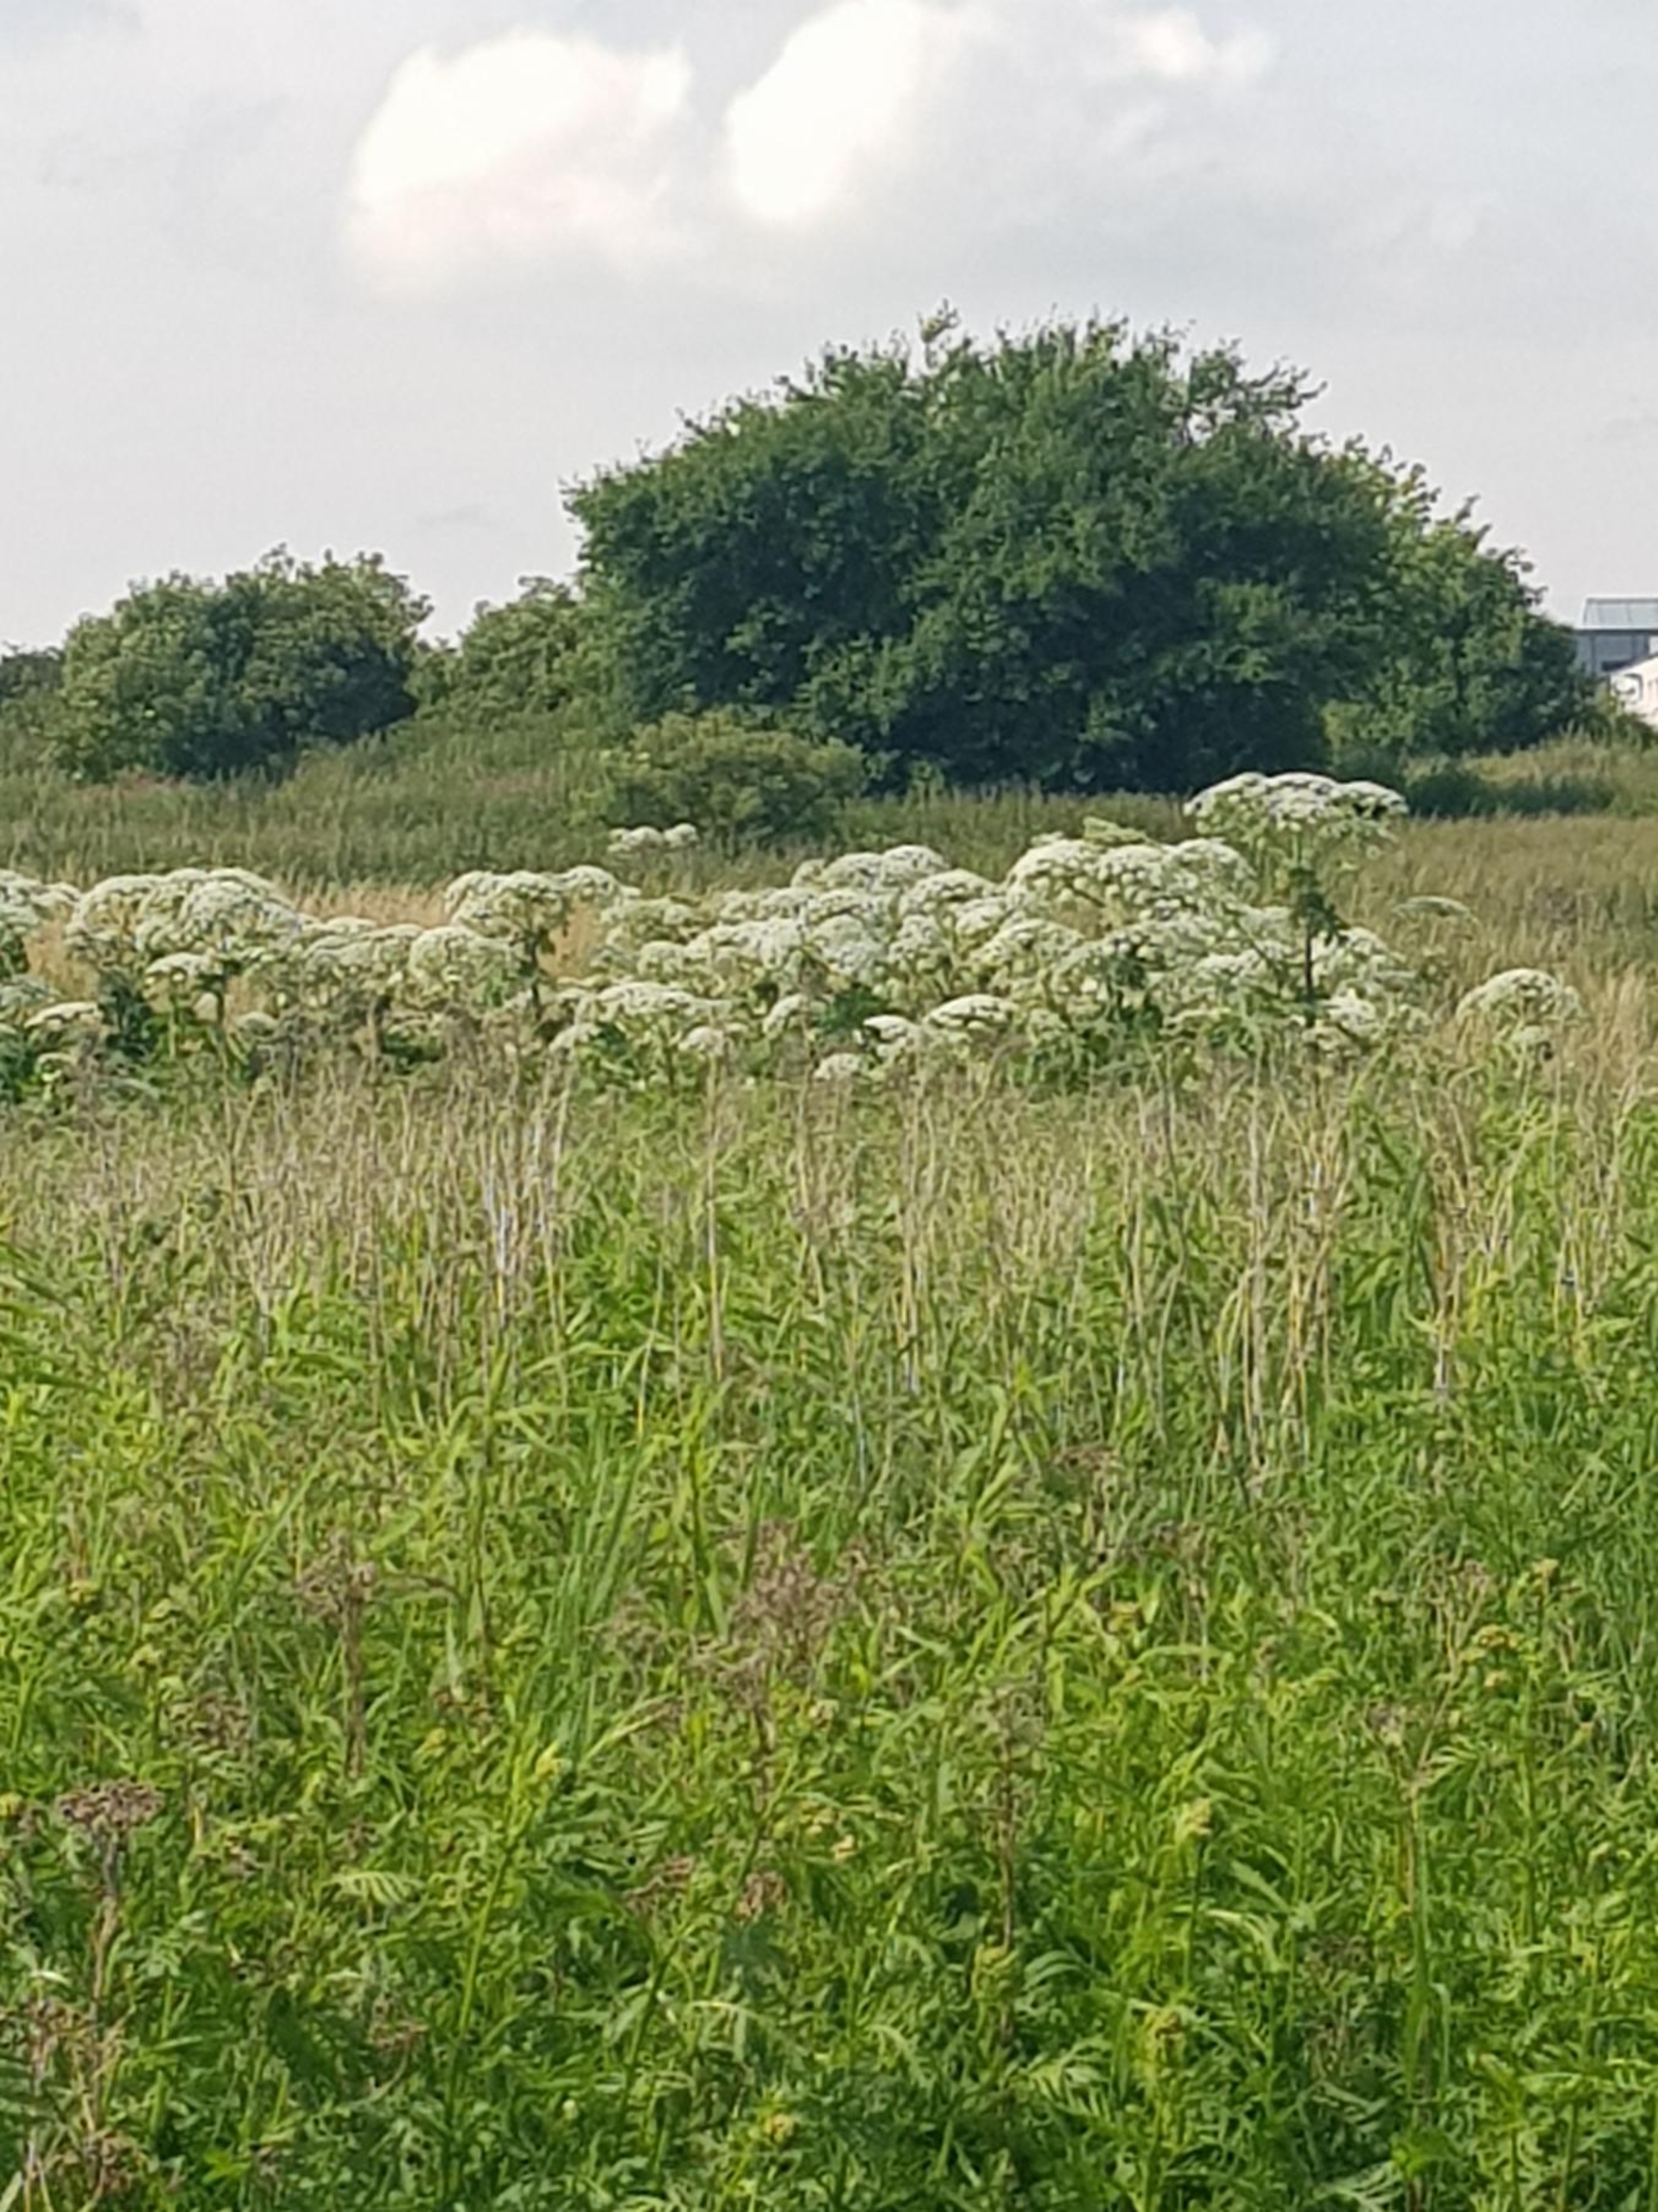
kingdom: Plantae
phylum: Tracheophyta
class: Magnoliopsida
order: Apiales
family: Apiaceae
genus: Heracleum
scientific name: Heracleum mantegazzianum
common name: Kæmpe-bjørneklo
